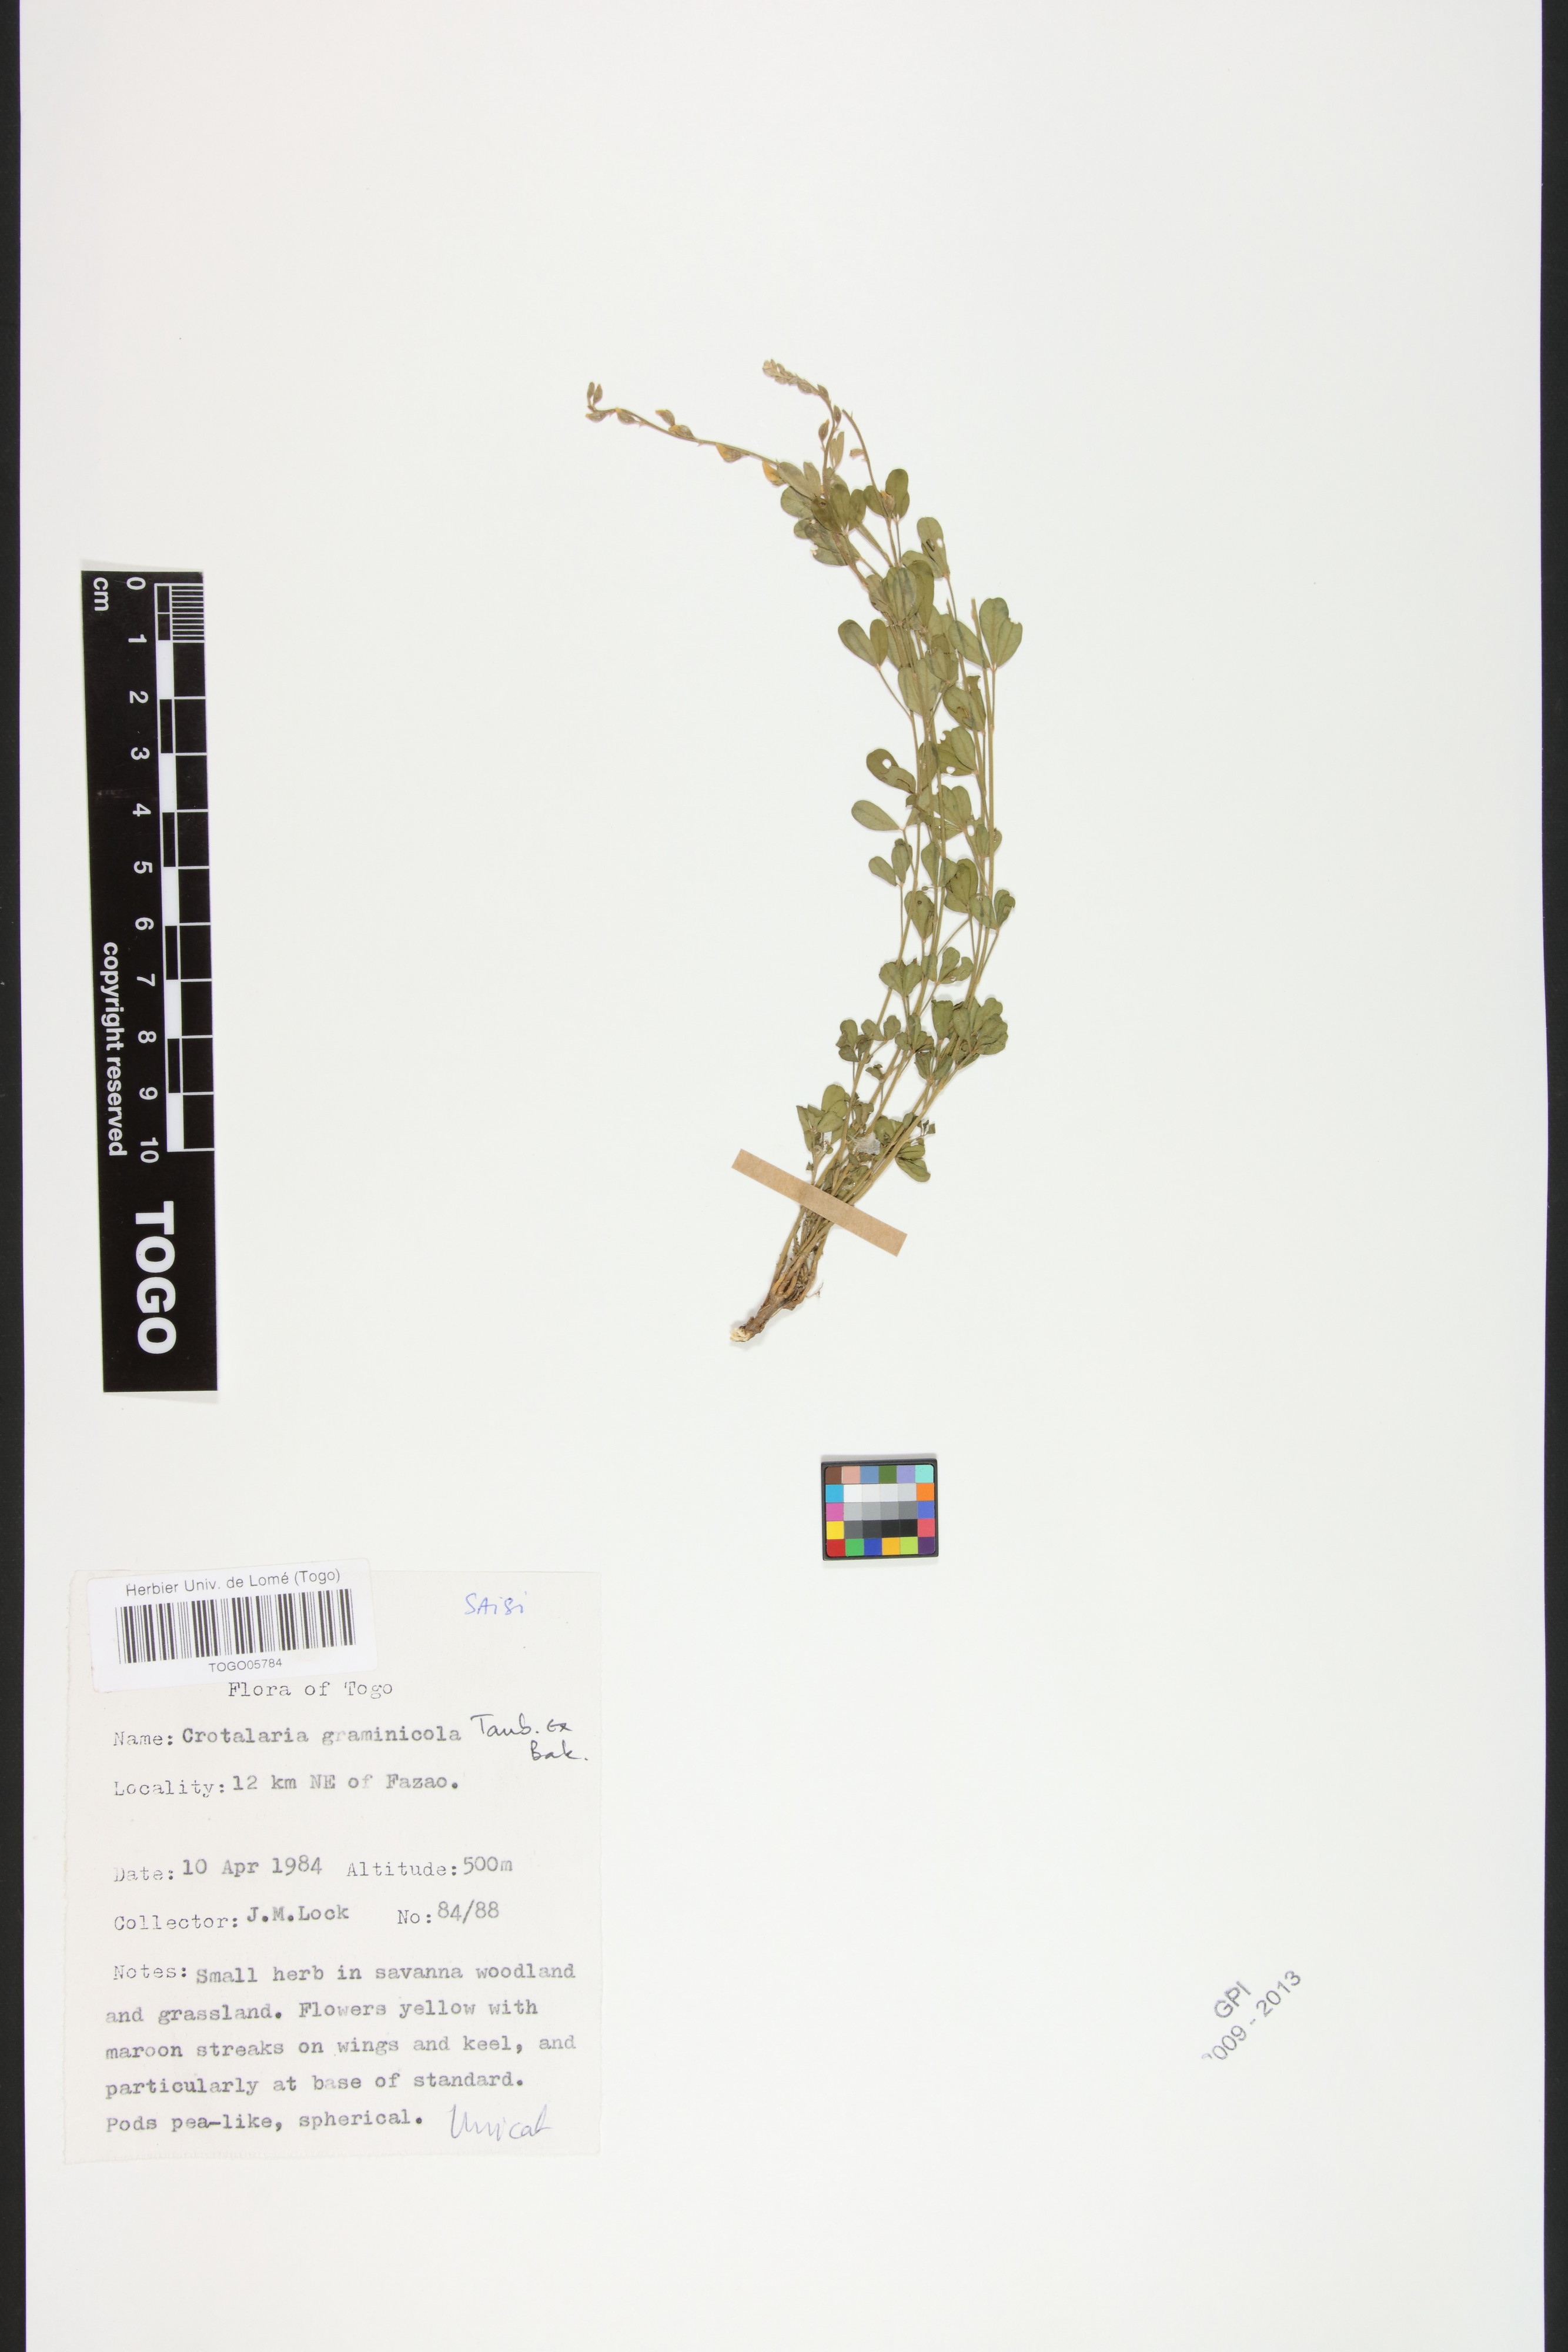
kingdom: Plantae
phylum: Tracheophyta
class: Magnoliopsida
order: Fabales
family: Fabaceae
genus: Crotalaria
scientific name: Crotalaria graminicola
